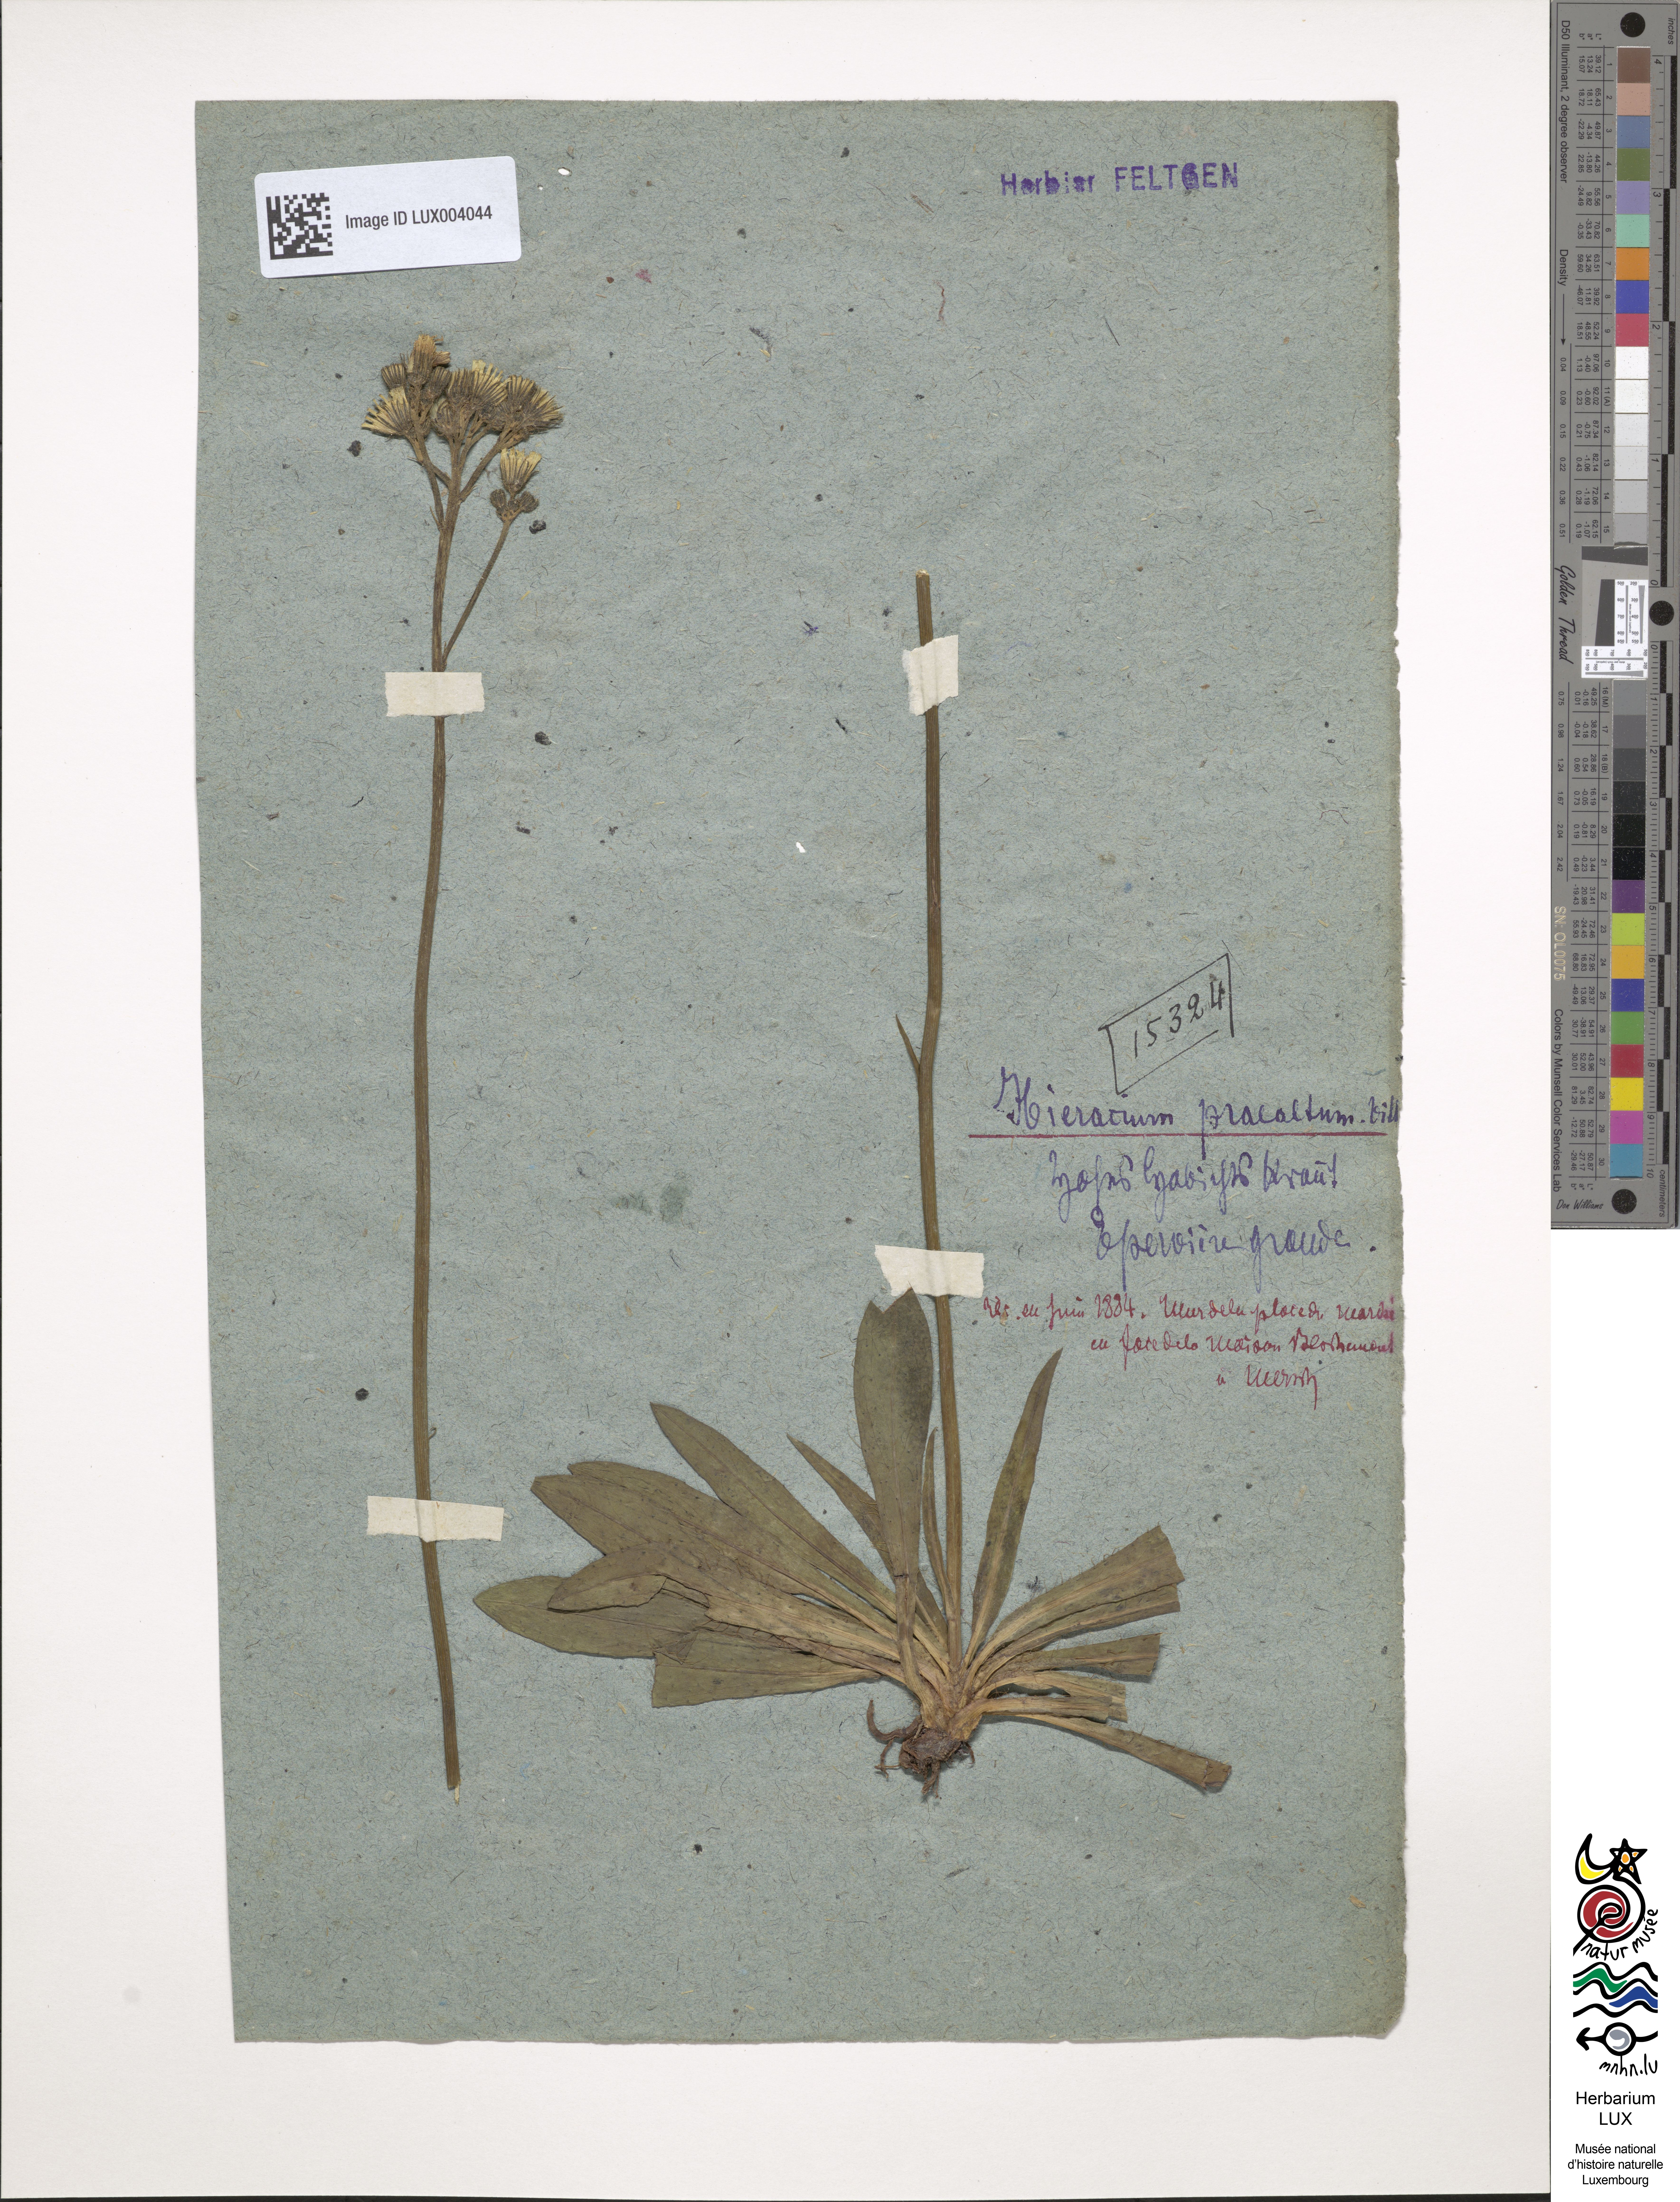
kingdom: Plantae
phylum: Tracheophyta
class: Magnoliopsida
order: Asterales
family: Asteraceae
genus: Pilosella
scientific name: Pilosella piloselloides
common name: Glaucous king-devil
